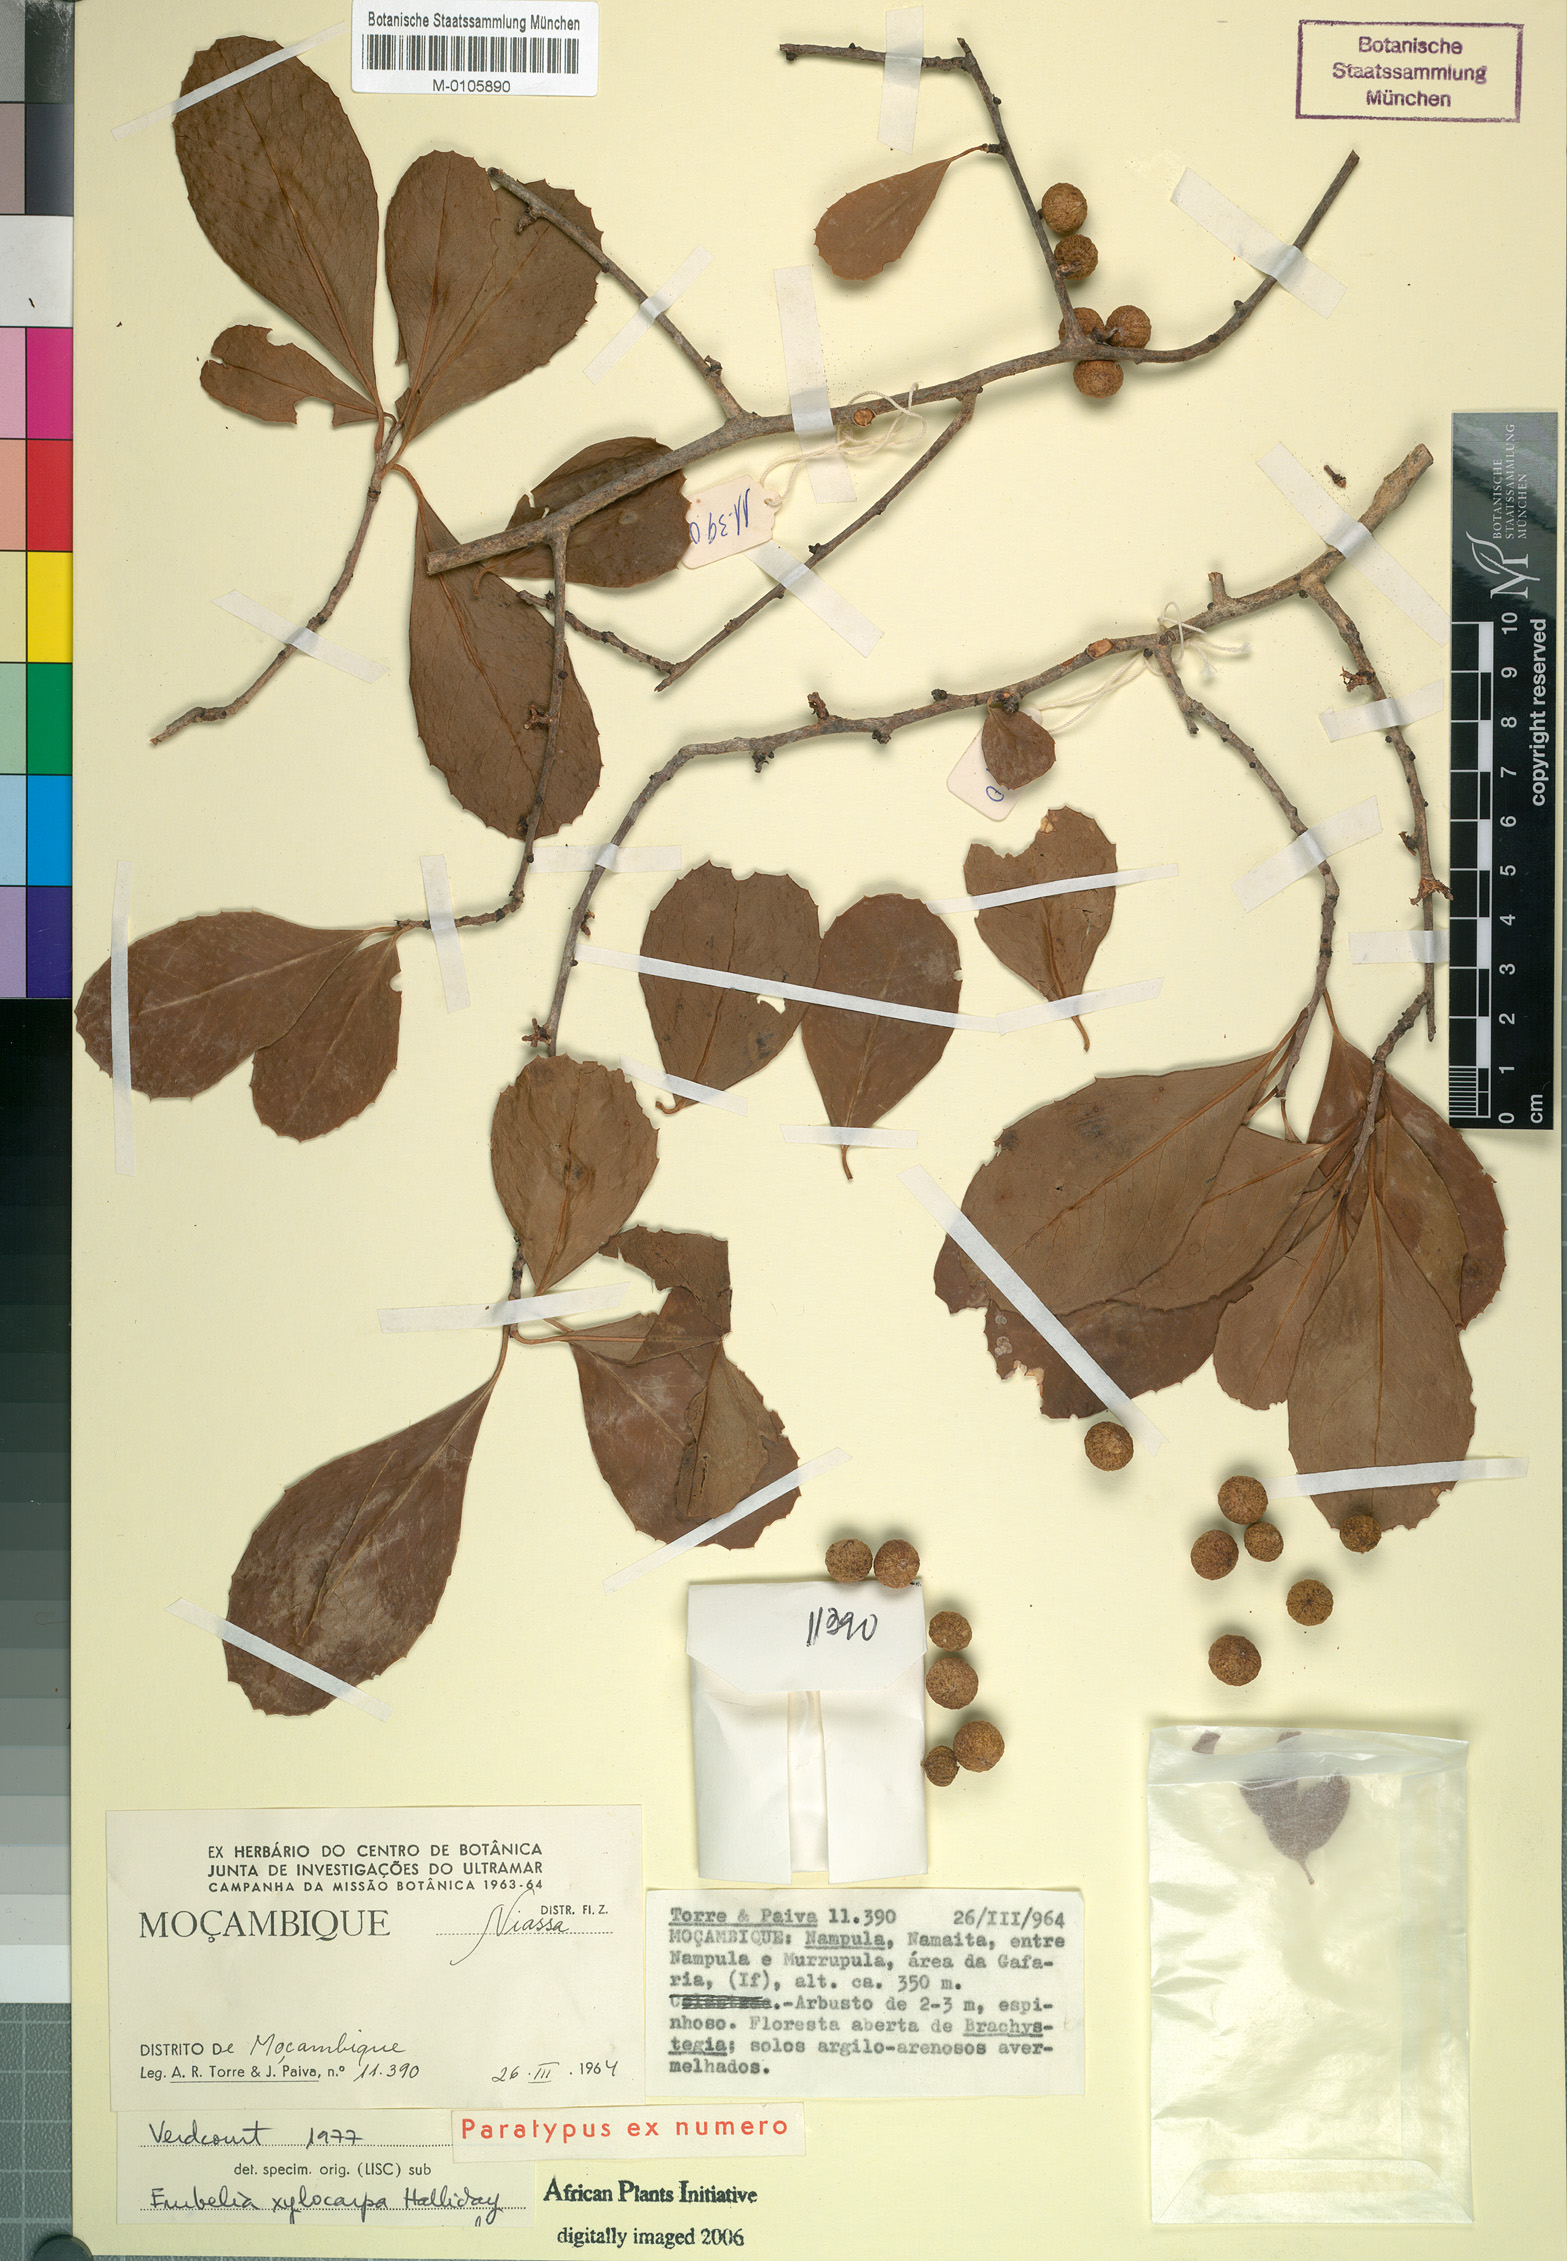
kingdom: Plantae
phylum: Tracheophyta
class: Magnoliopsida
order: Ericales
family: Primulaceae
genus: Embelia
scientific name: Embelia xylocarpa
